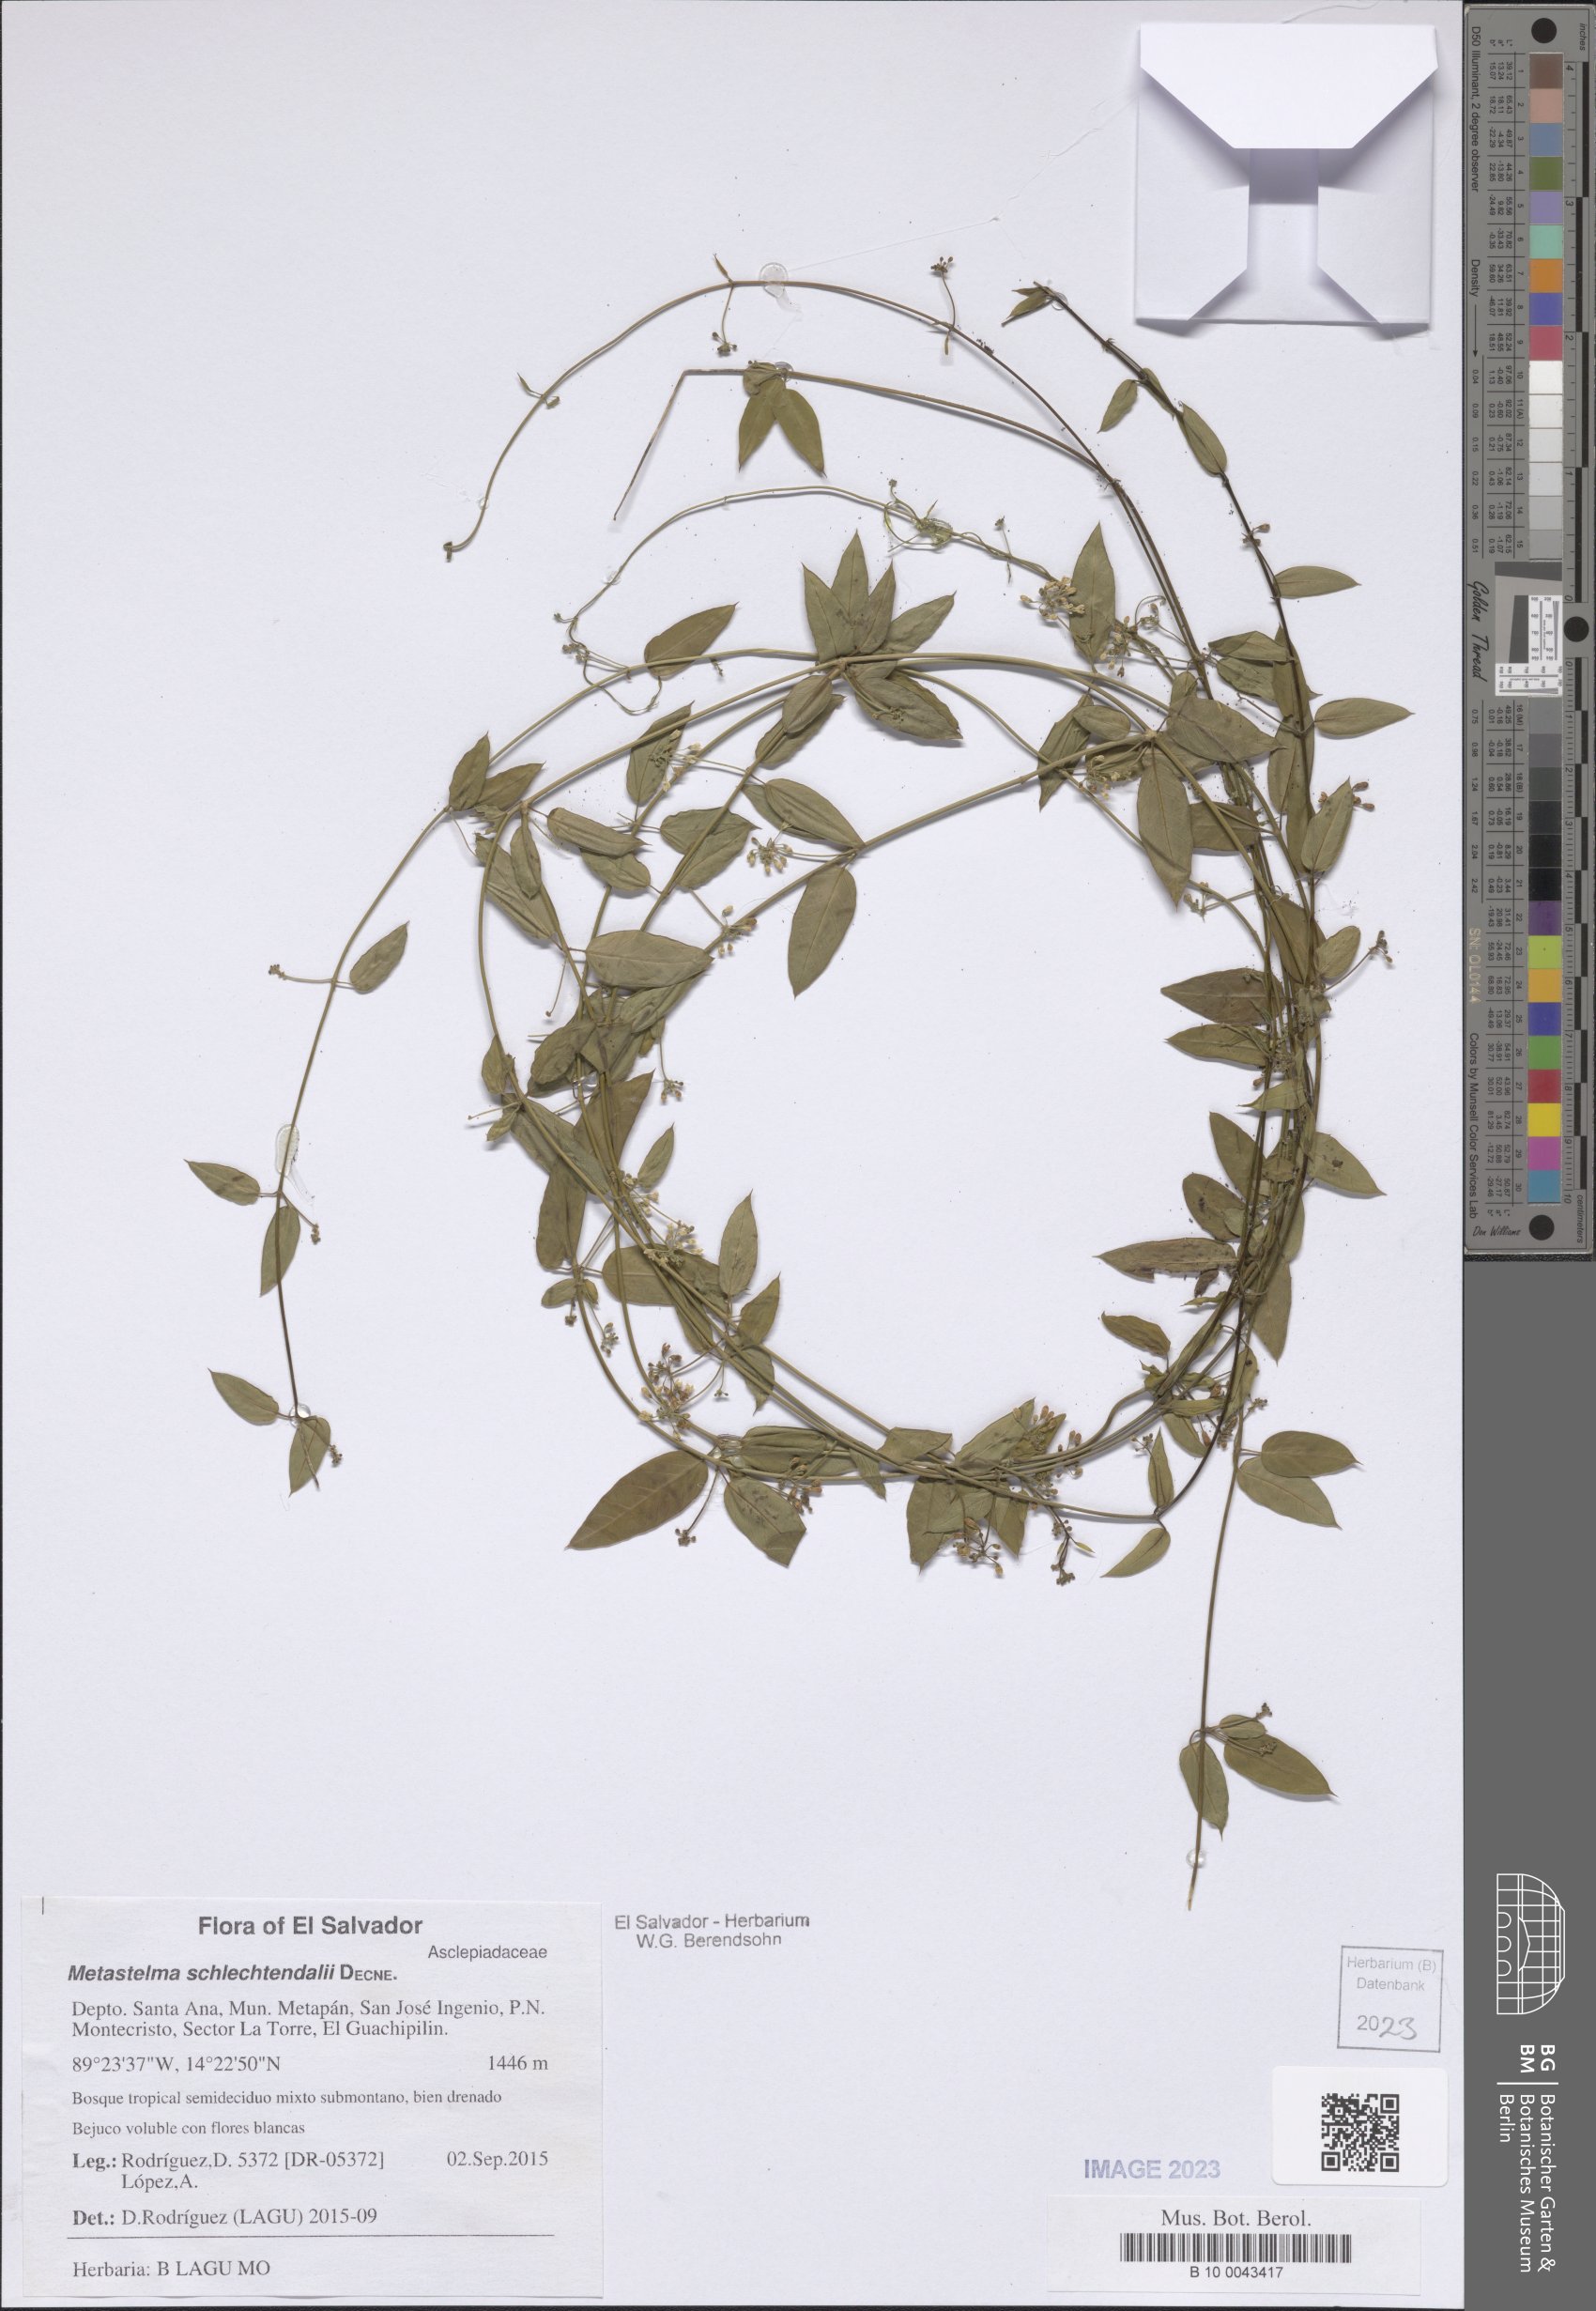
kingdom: Plantae
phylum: Tracheophyta
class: Magnoliopsida
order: Gentianales
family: Apocynaceae
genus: Metastelma
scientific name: Metastelma schlechtendalii
